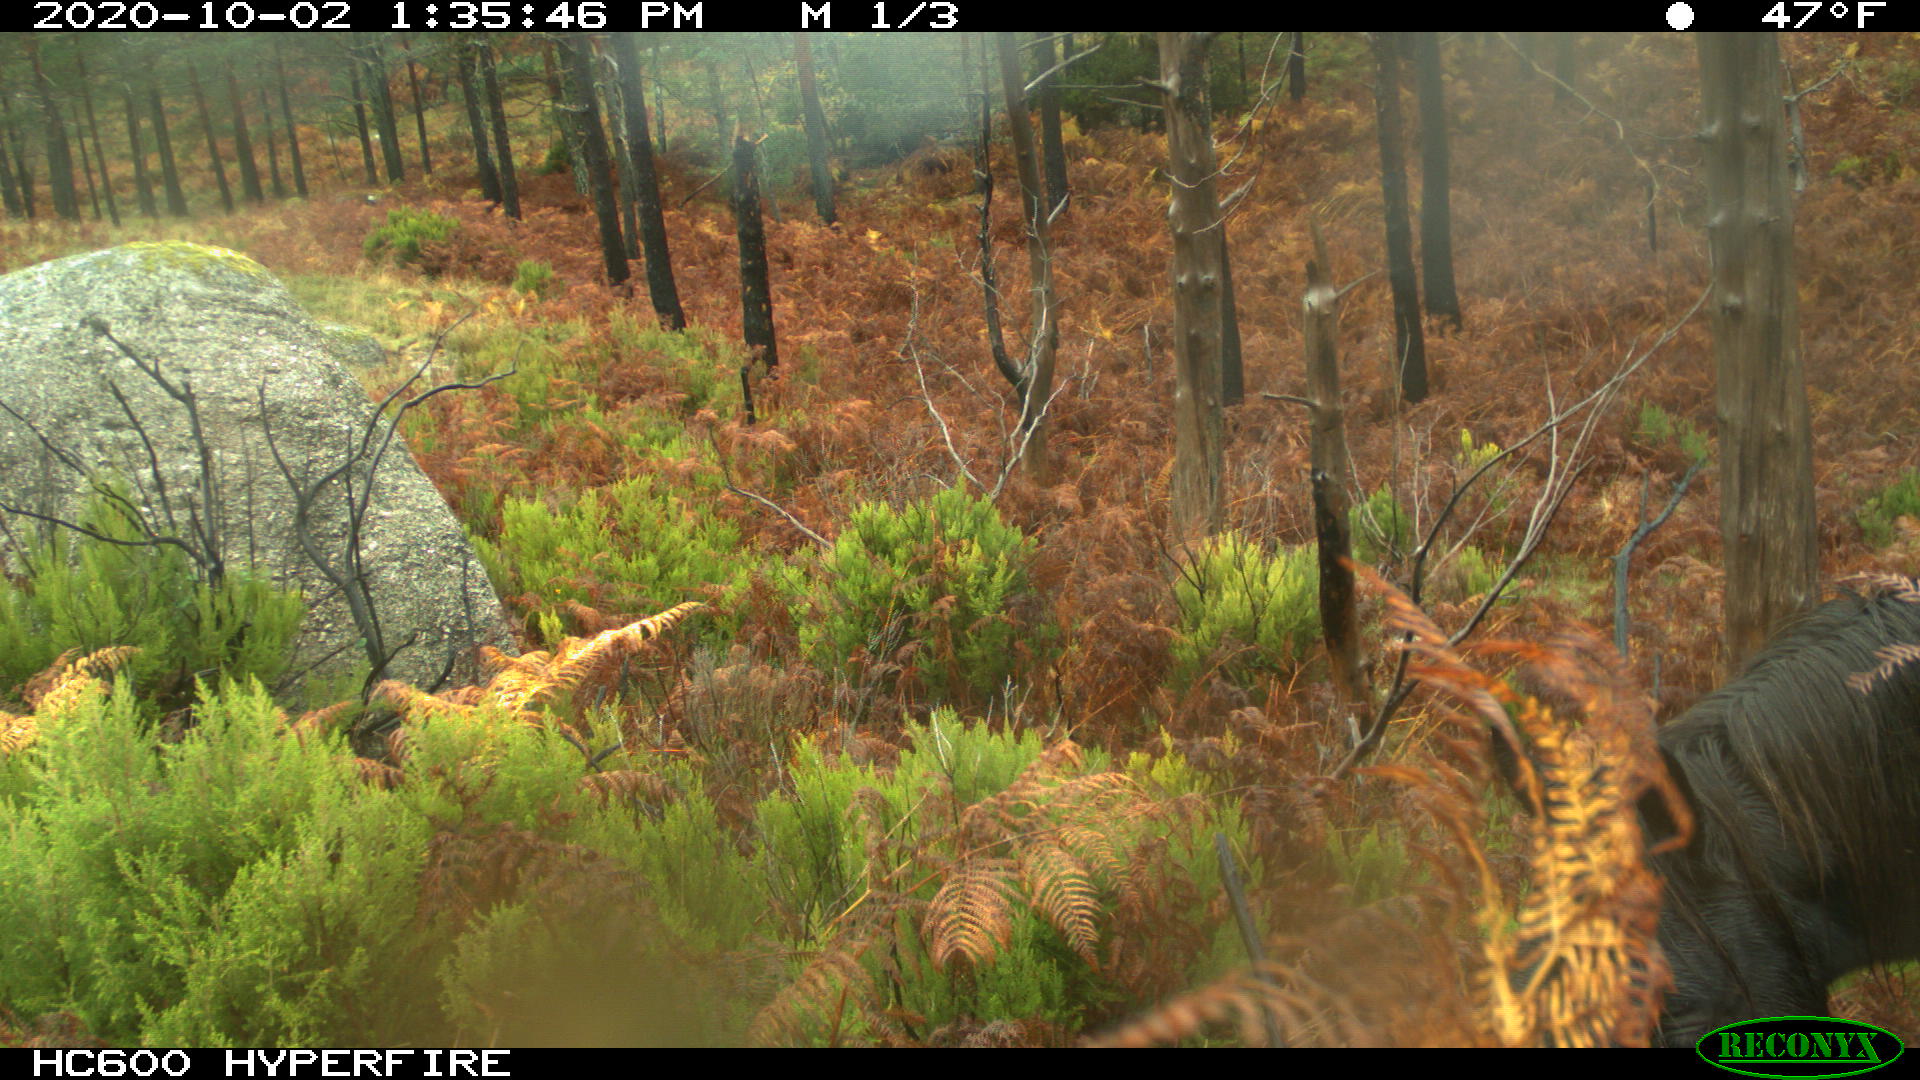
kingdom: Animalia
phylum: Chordata
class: Mammalia
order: Perissodactyla
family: Equidae
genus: Equus
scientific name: Equus caballus
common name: Horse
